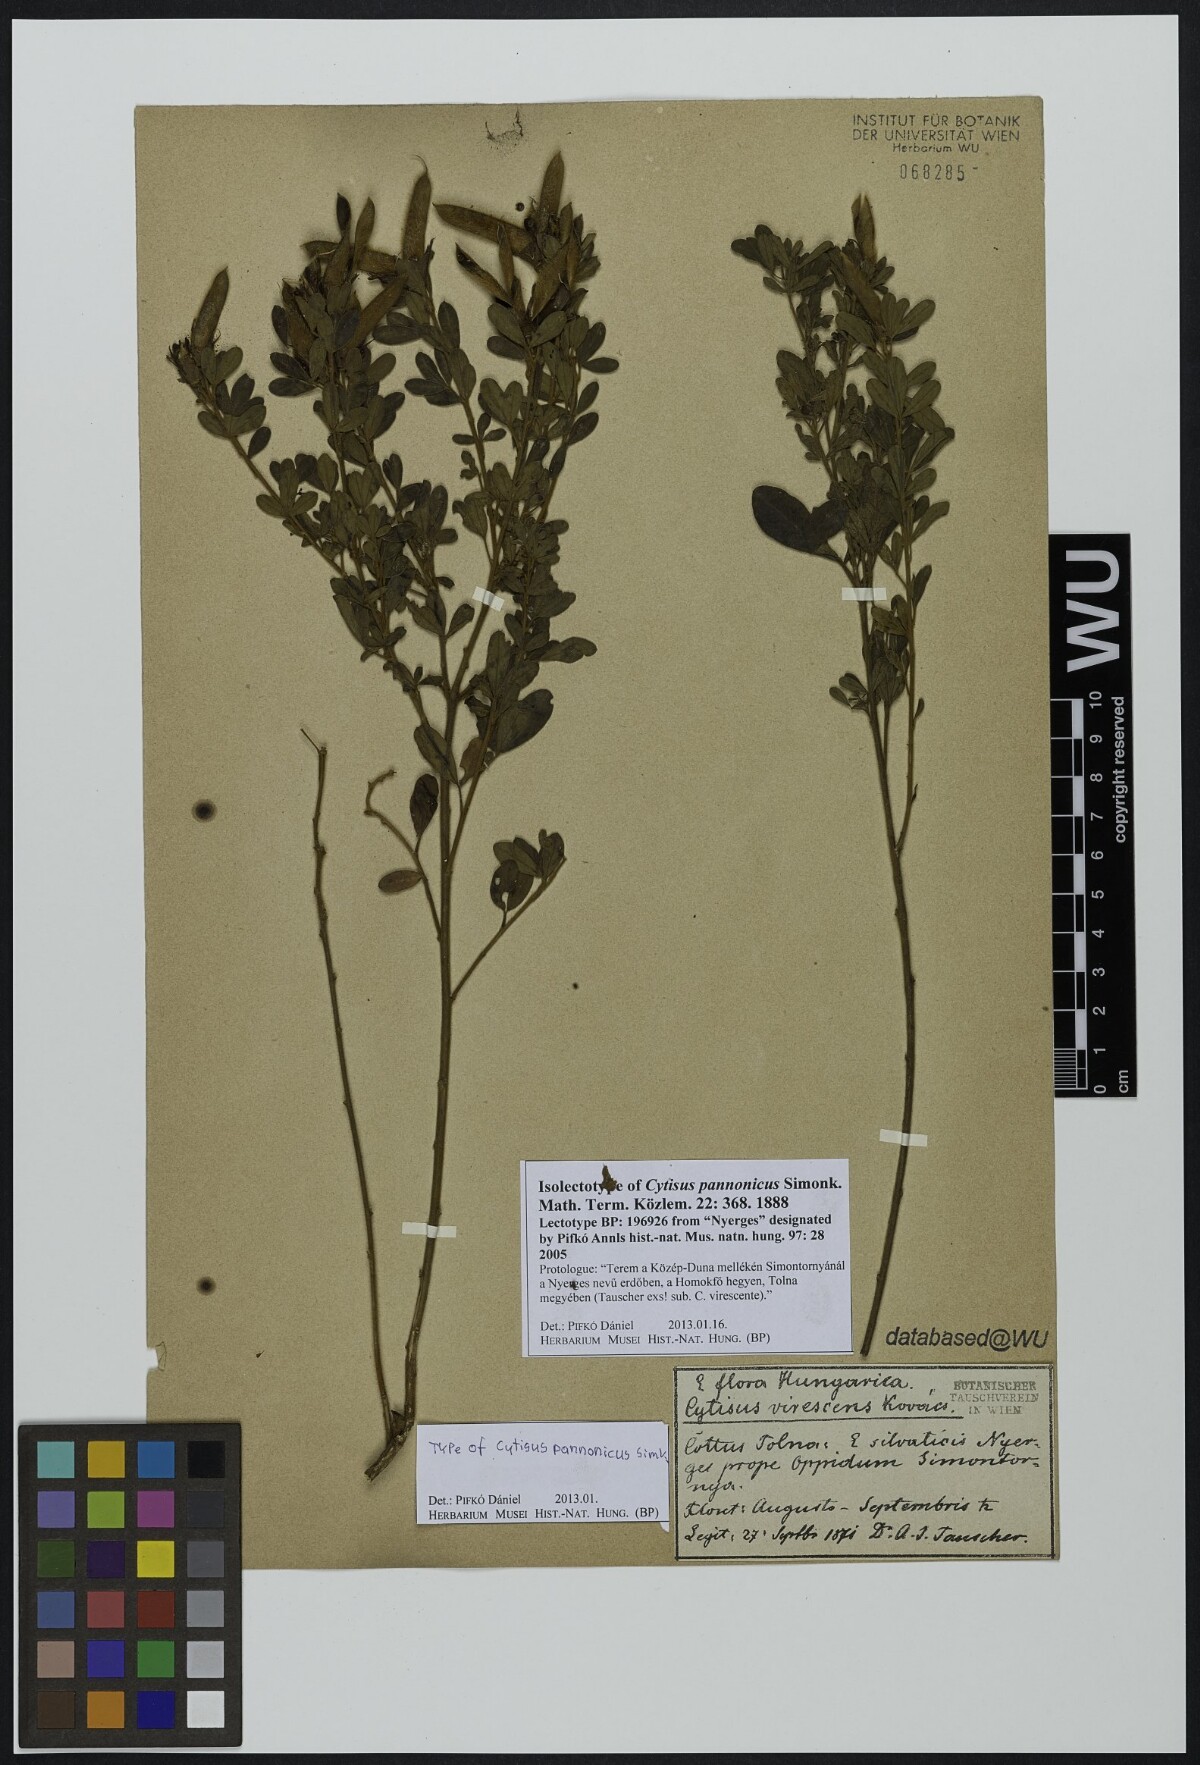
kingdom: Plantae
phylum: Tracheophyta
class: Magnoliopsida
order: Fabales
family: Fabaceae
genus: Chamaecytisus
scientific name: Chamaecytisus supinus
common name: Clustered broom
